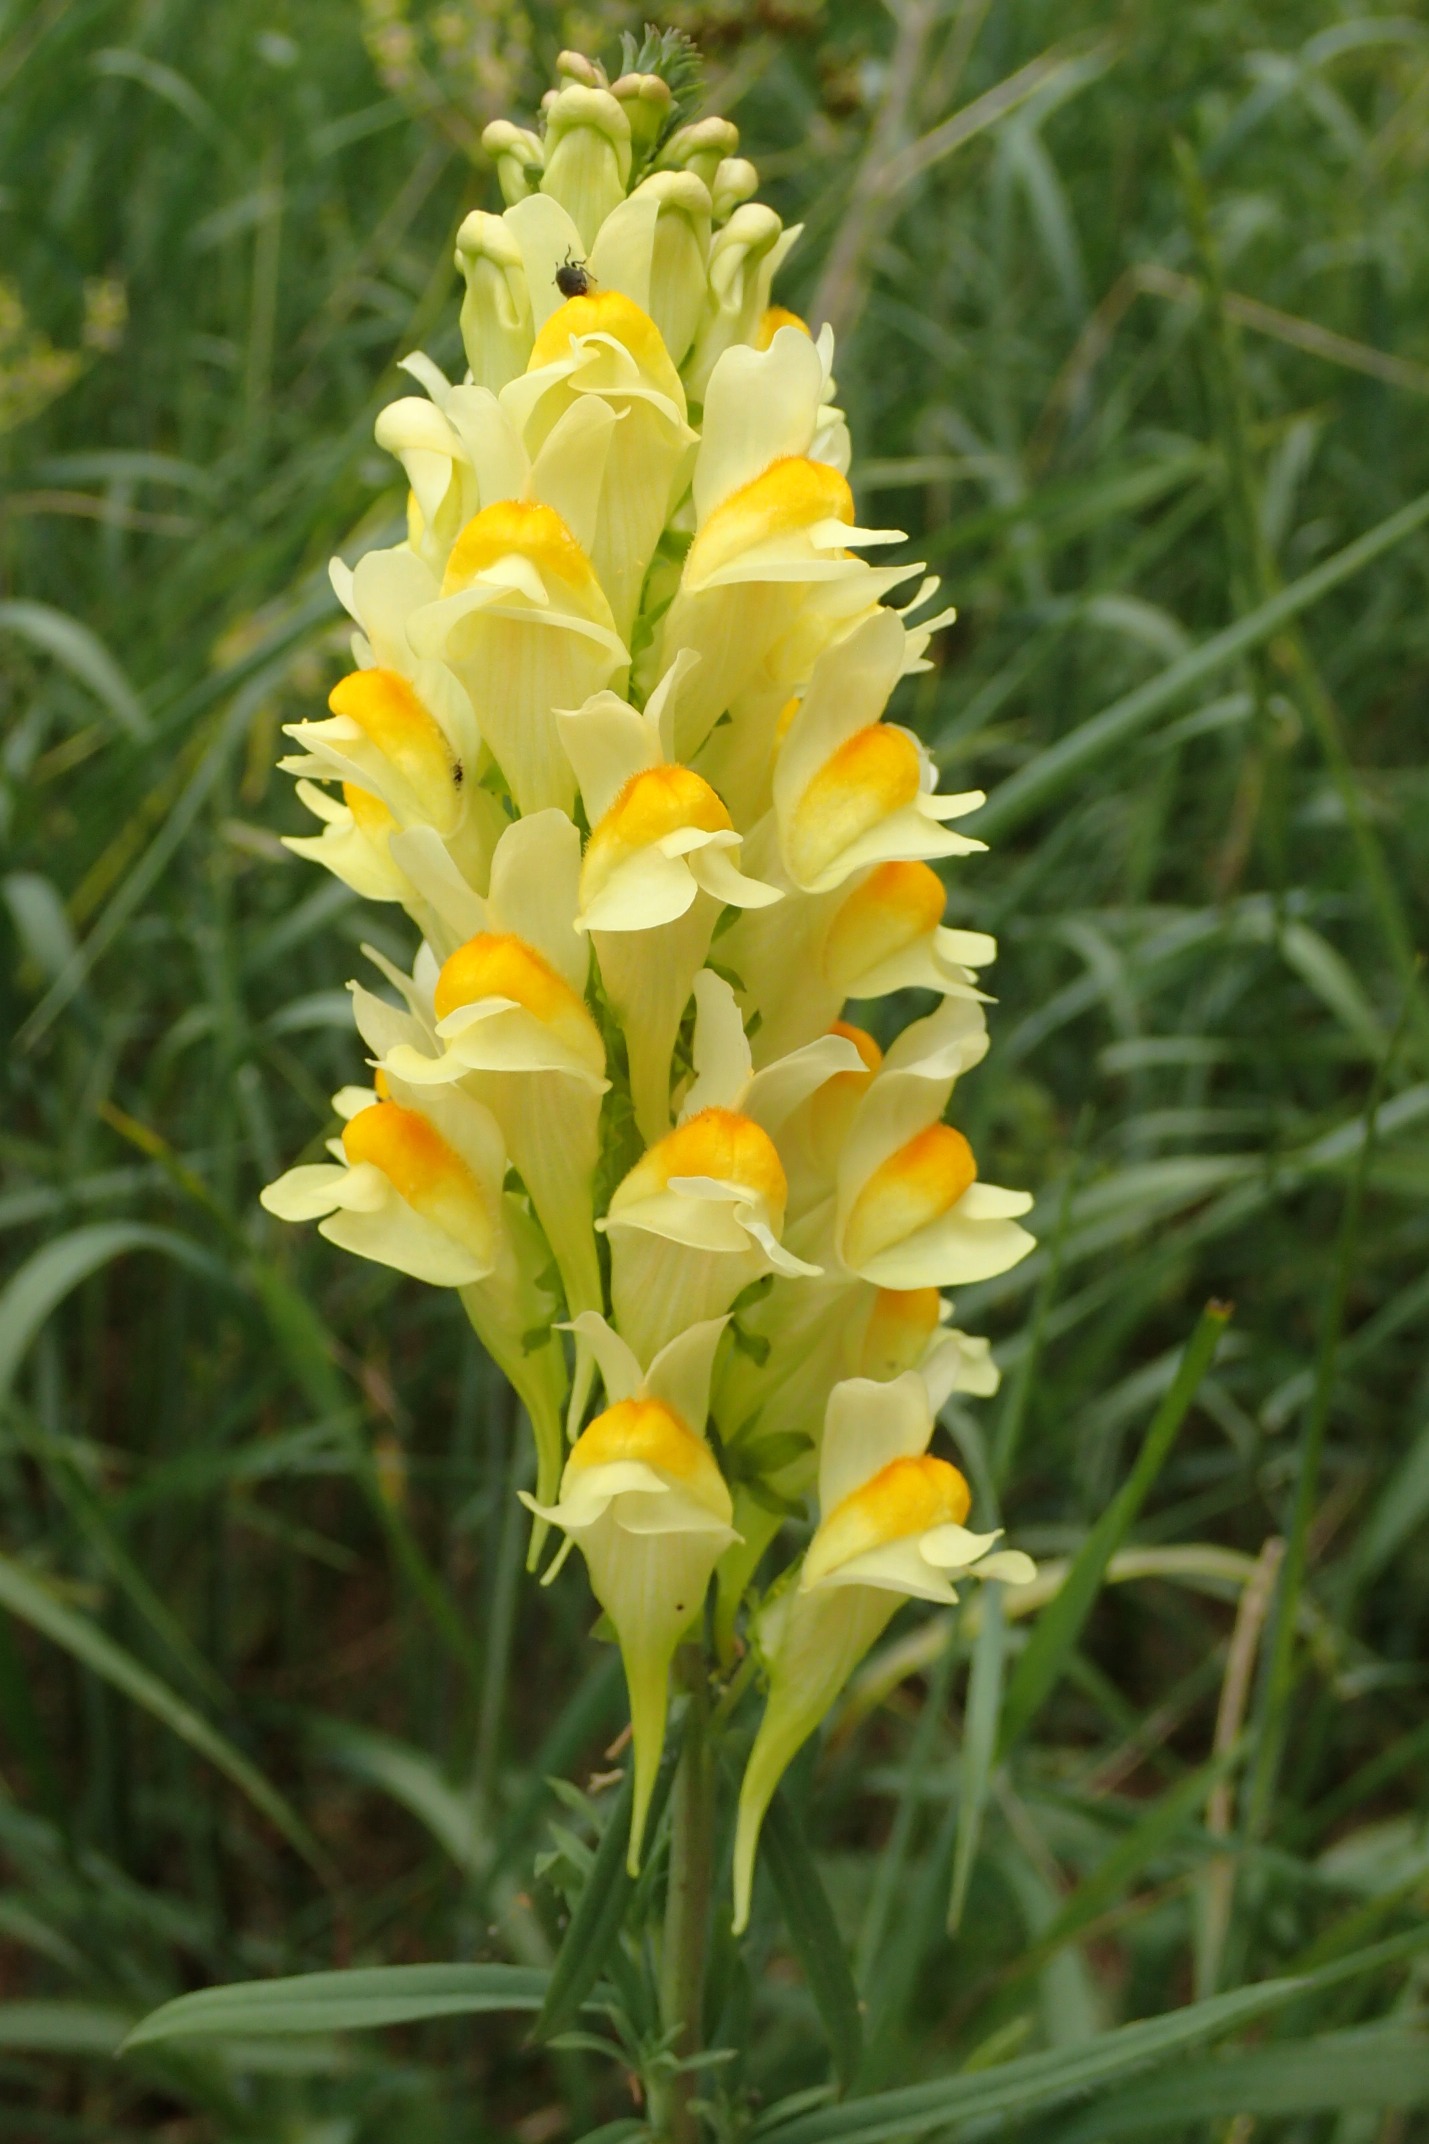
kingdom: Plantae
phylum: Tracheophyta
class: Magnoliopsida
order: Lamiales
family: Plantaginaceae
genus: Linaria
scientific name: Linaria vulgaris
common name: Almindelig torskemund
